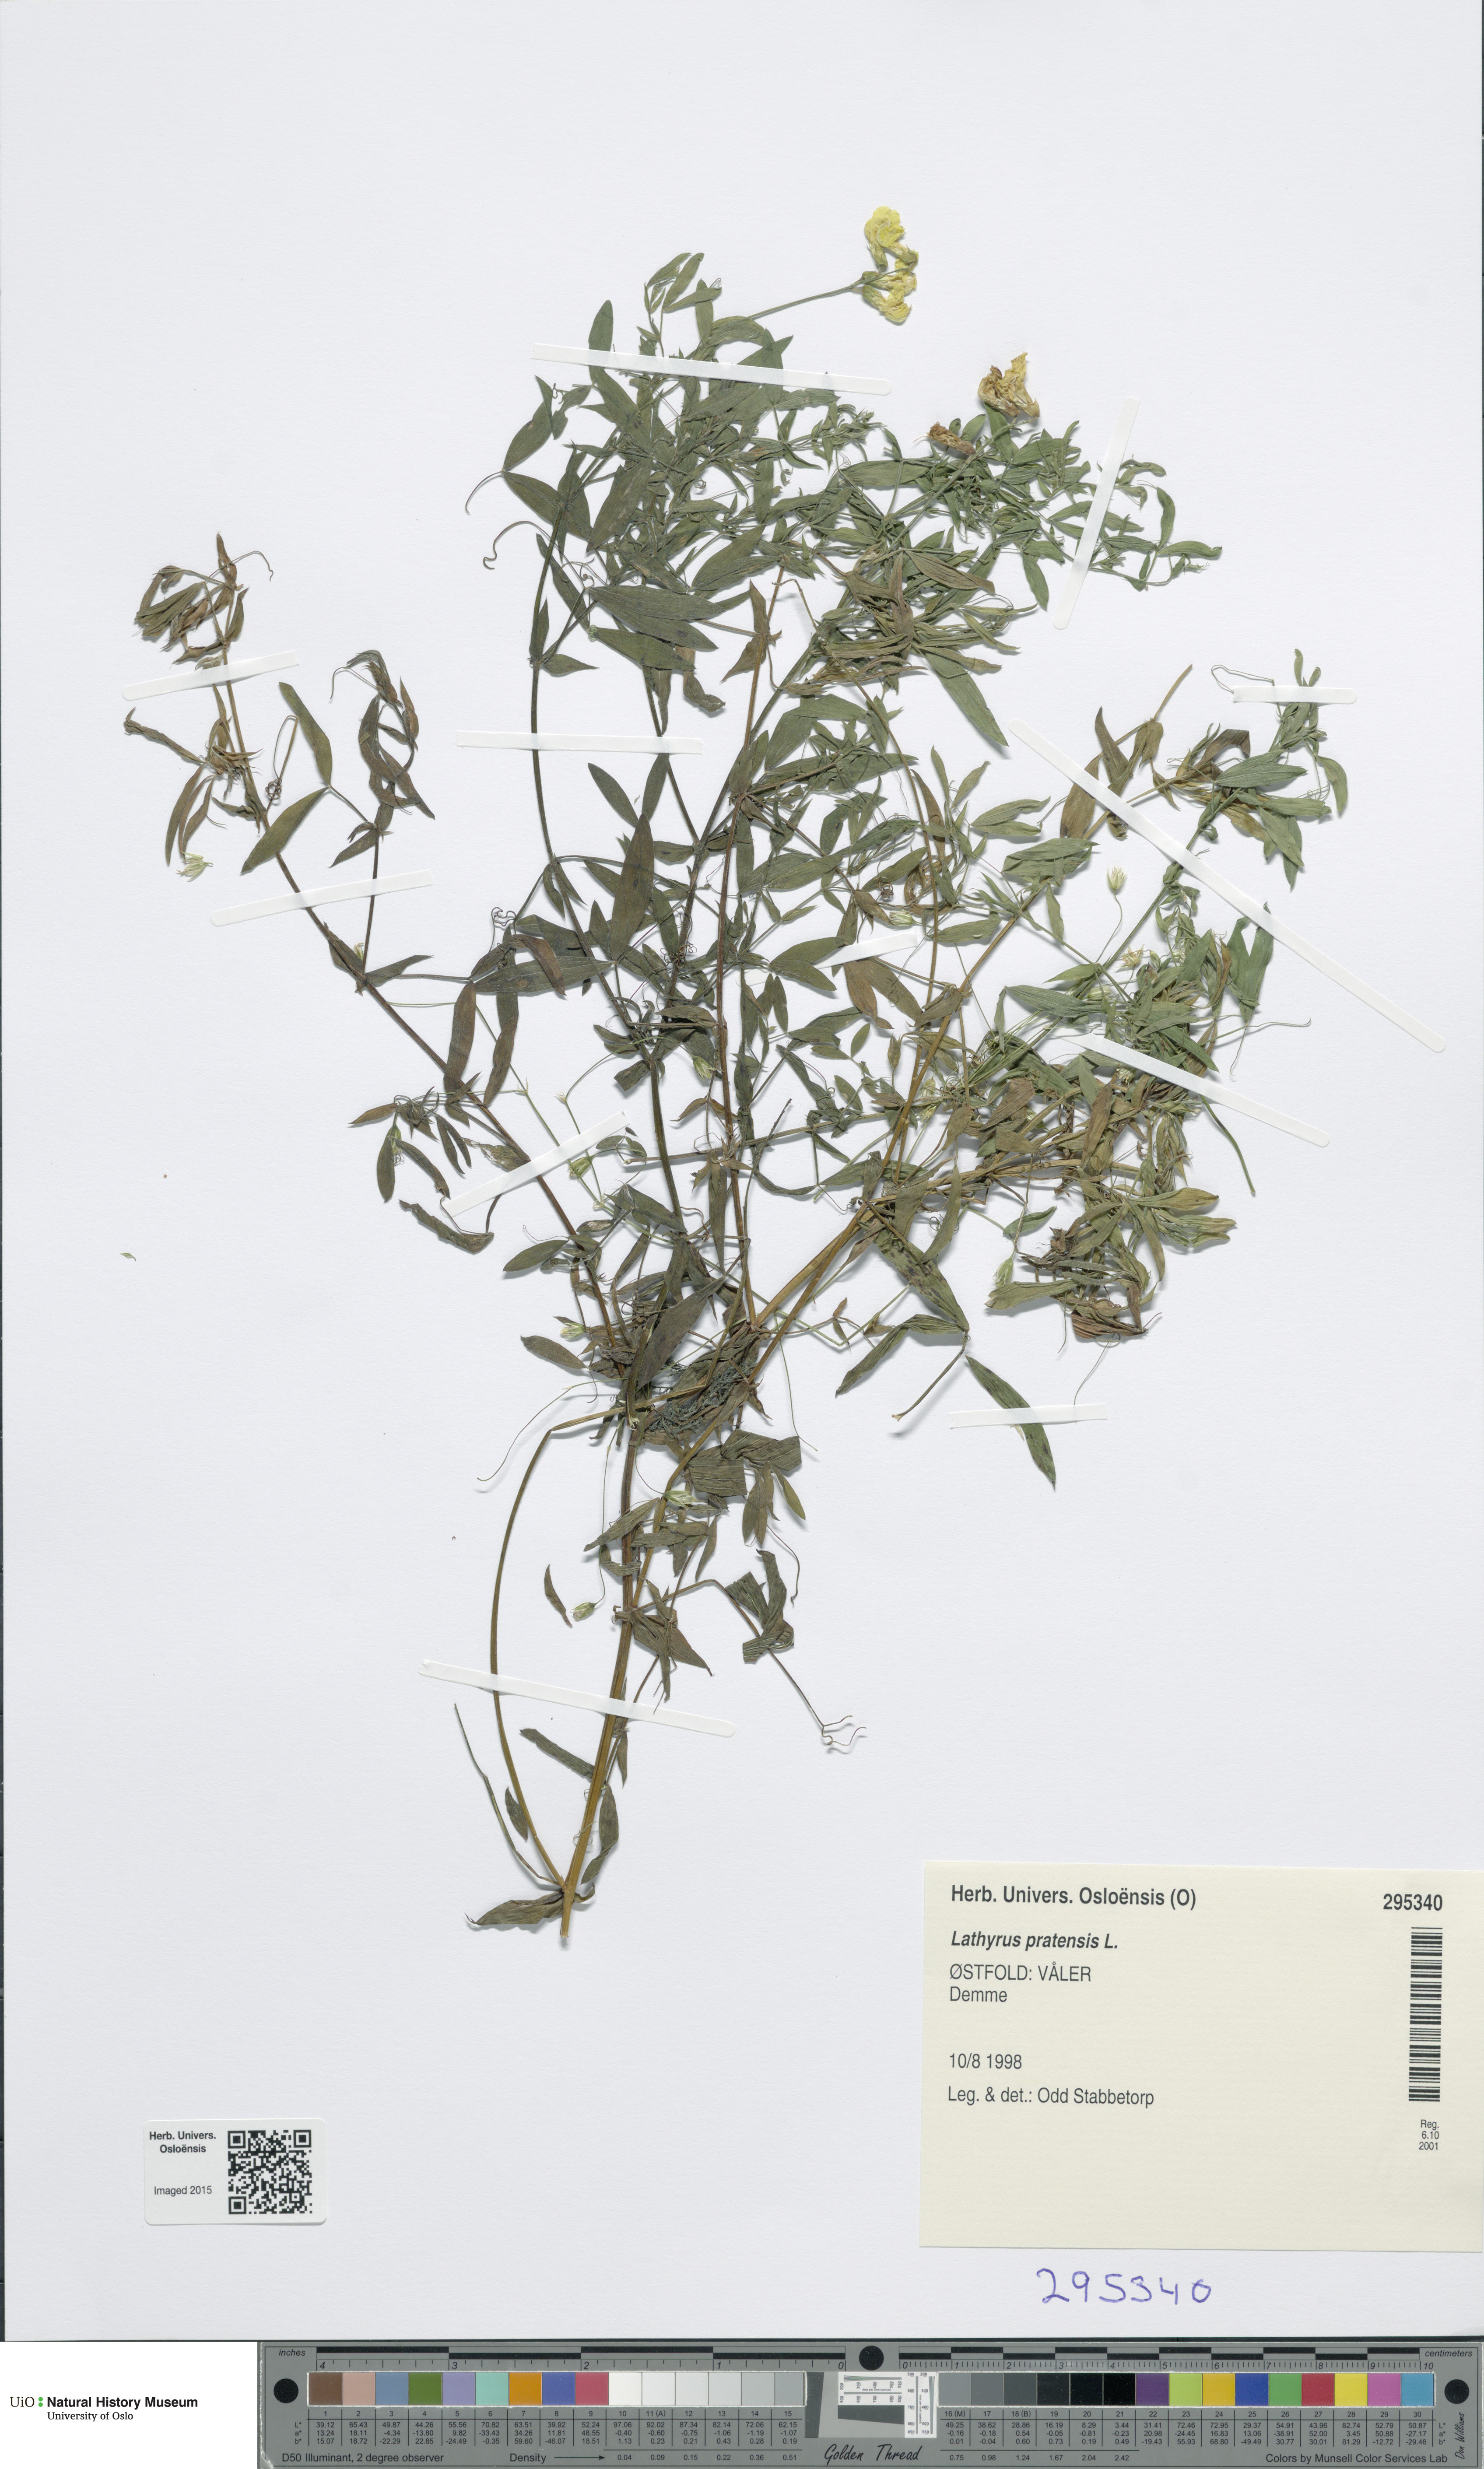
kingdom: Plantae
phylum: Tracheophyta
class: Magnoliopsida
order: Fabales
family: Fabaceae
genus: Lathyrus
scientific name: Lathyrus pratensis
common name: Meadow vetchling
